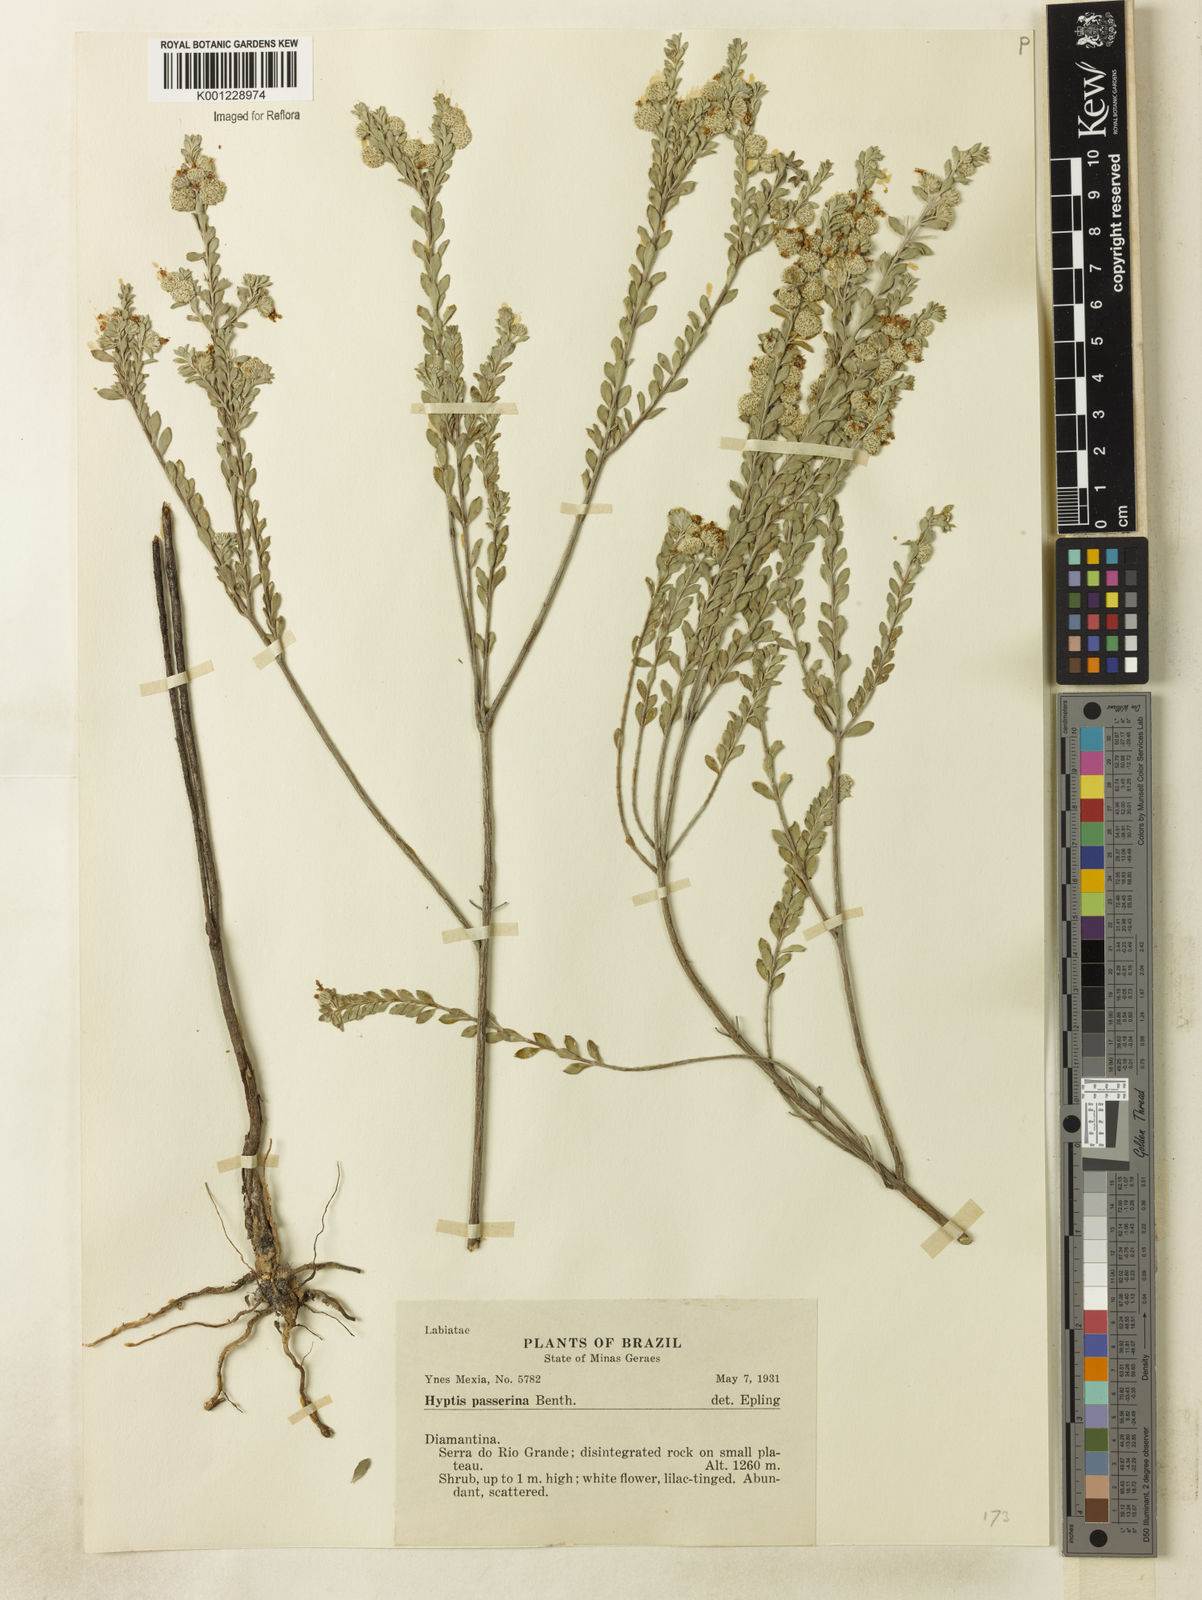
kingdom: Plantae
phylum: Tracheophyta
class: Magnoliopsida
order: Lamiales
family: Lamiaceae
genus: Hyptis
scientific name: Hyptis passerina
